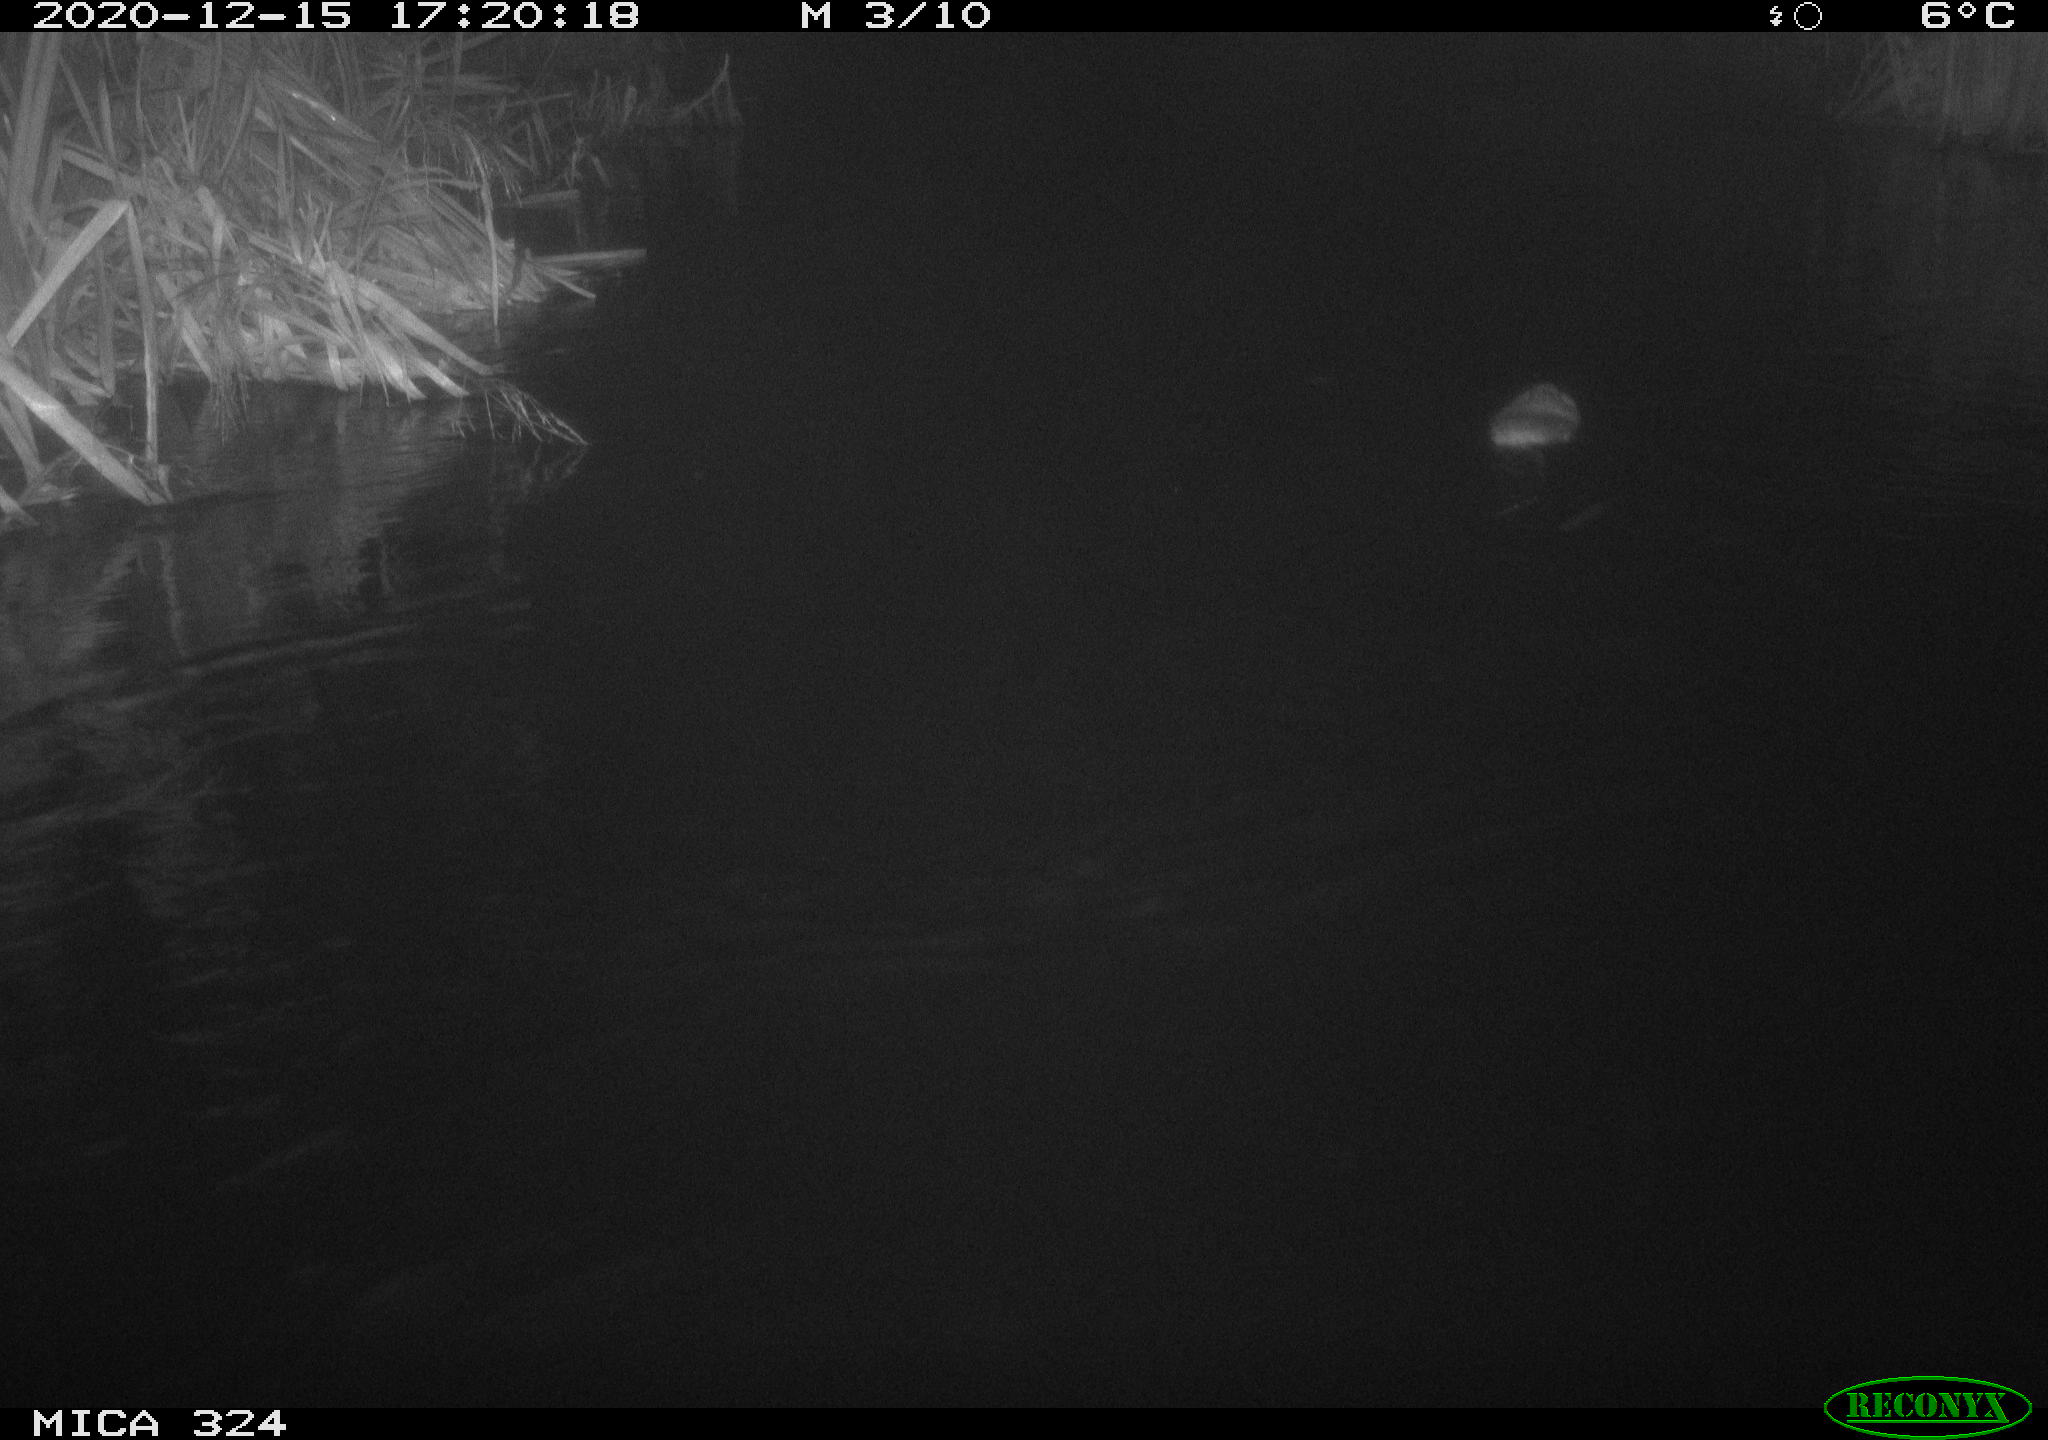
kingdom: Animalia
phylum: Chordata
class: Mammalia
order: Rodentia
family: Cricetidae
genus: Ondatra
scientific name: Ondatra zibethicus
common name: Muskrat
